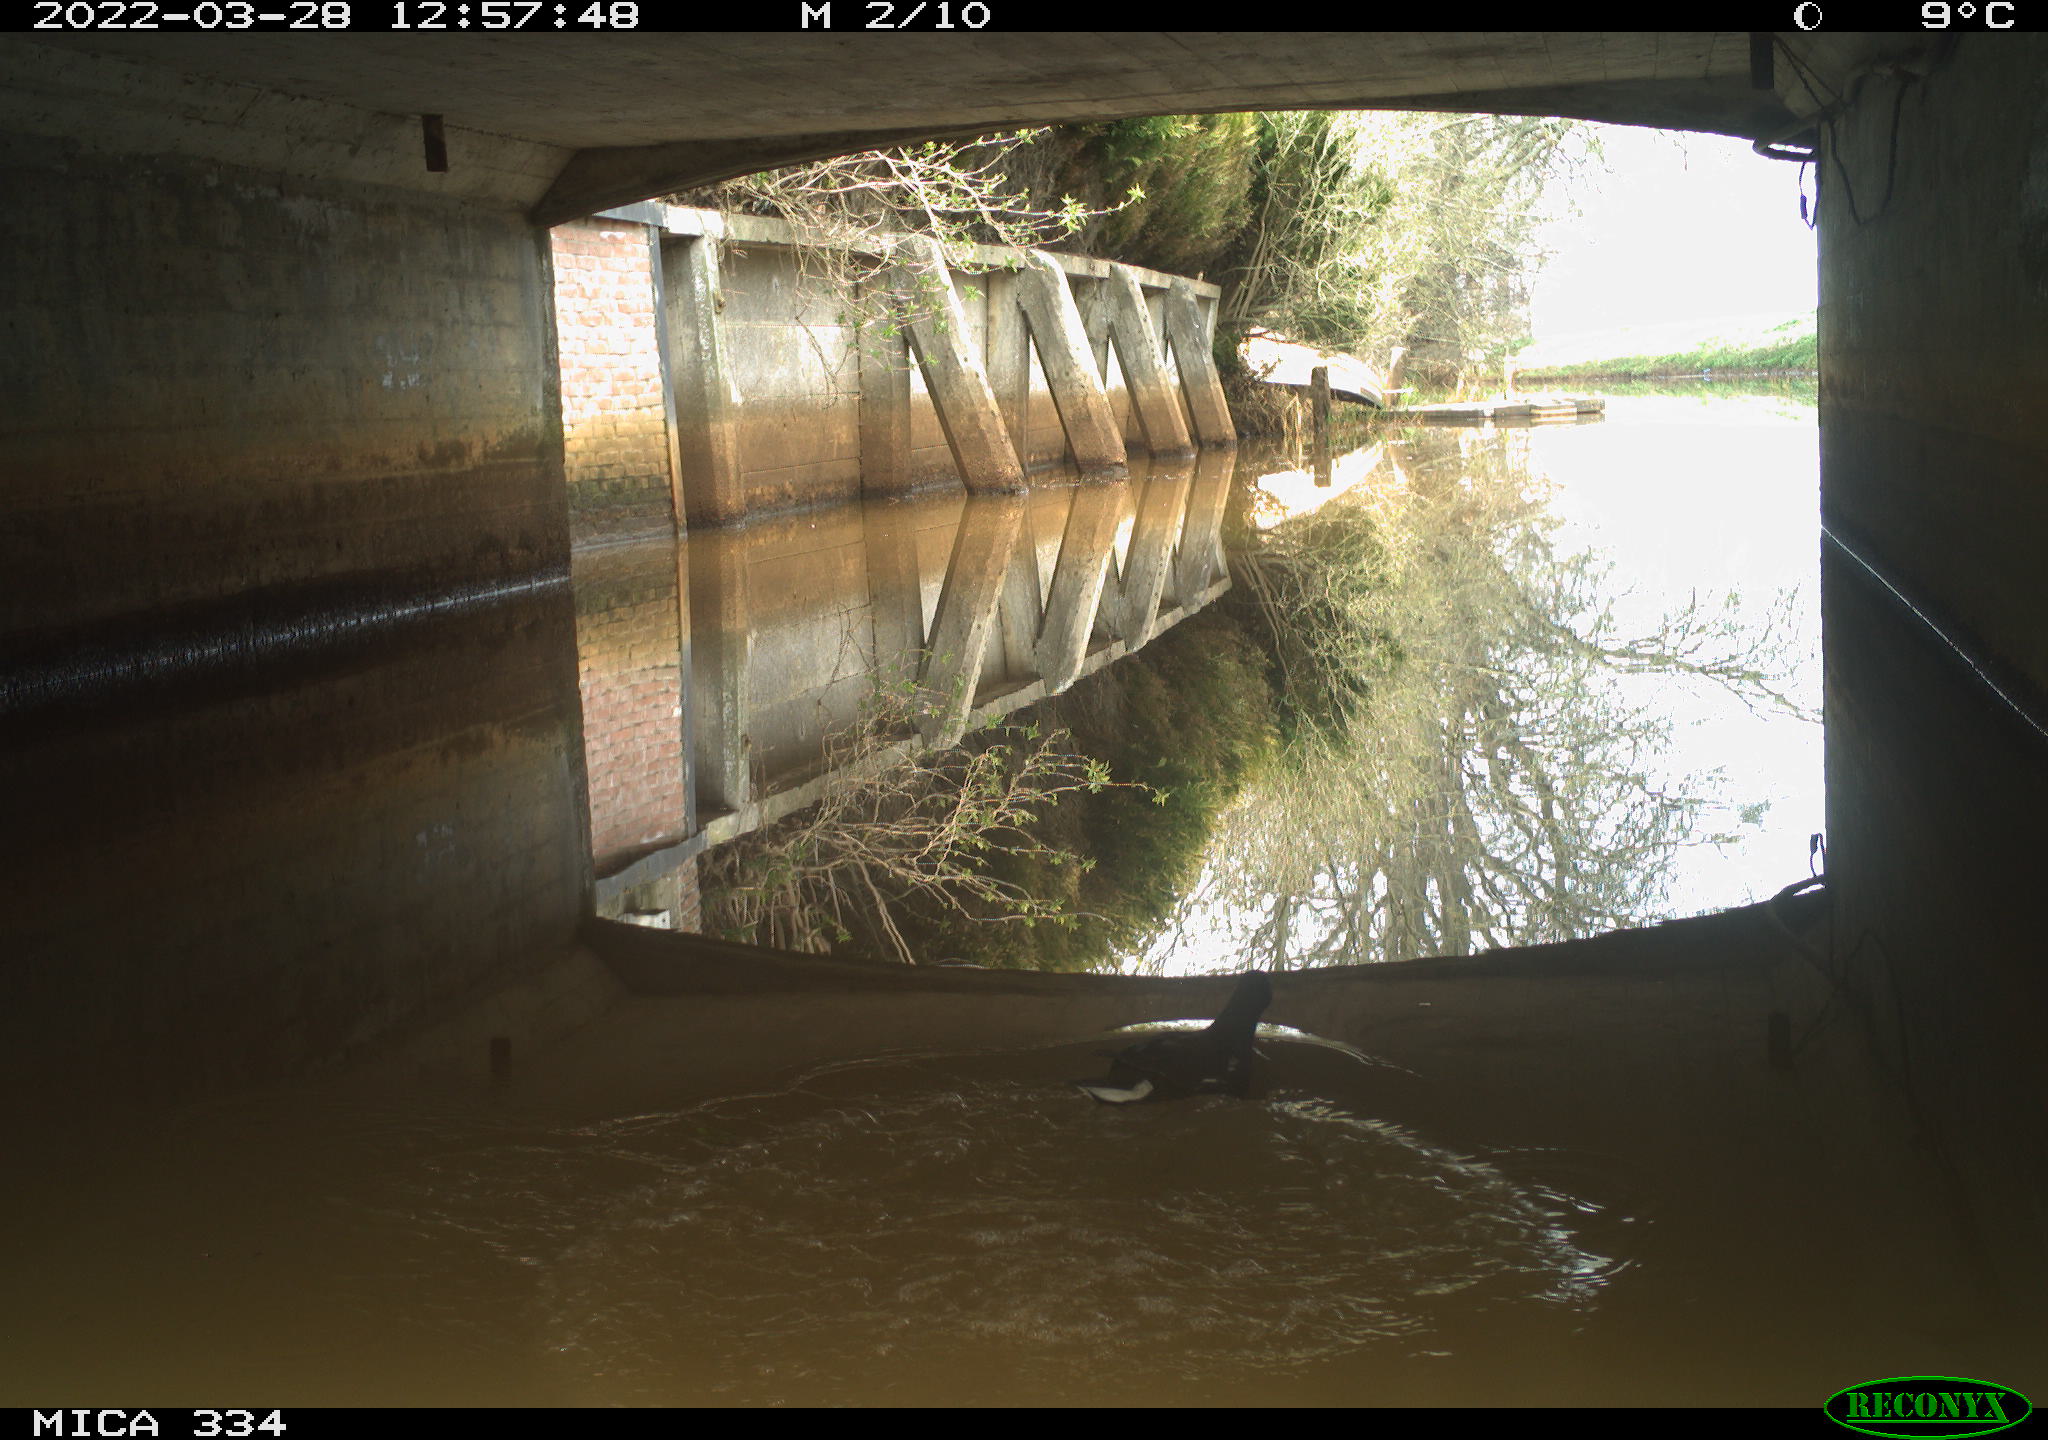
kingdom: Animalia
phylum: Chordata
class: Aves
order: Gruiformes
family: Rallidae
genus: Gallinula
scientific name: Gallinula chloropus
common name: Common moorhen
